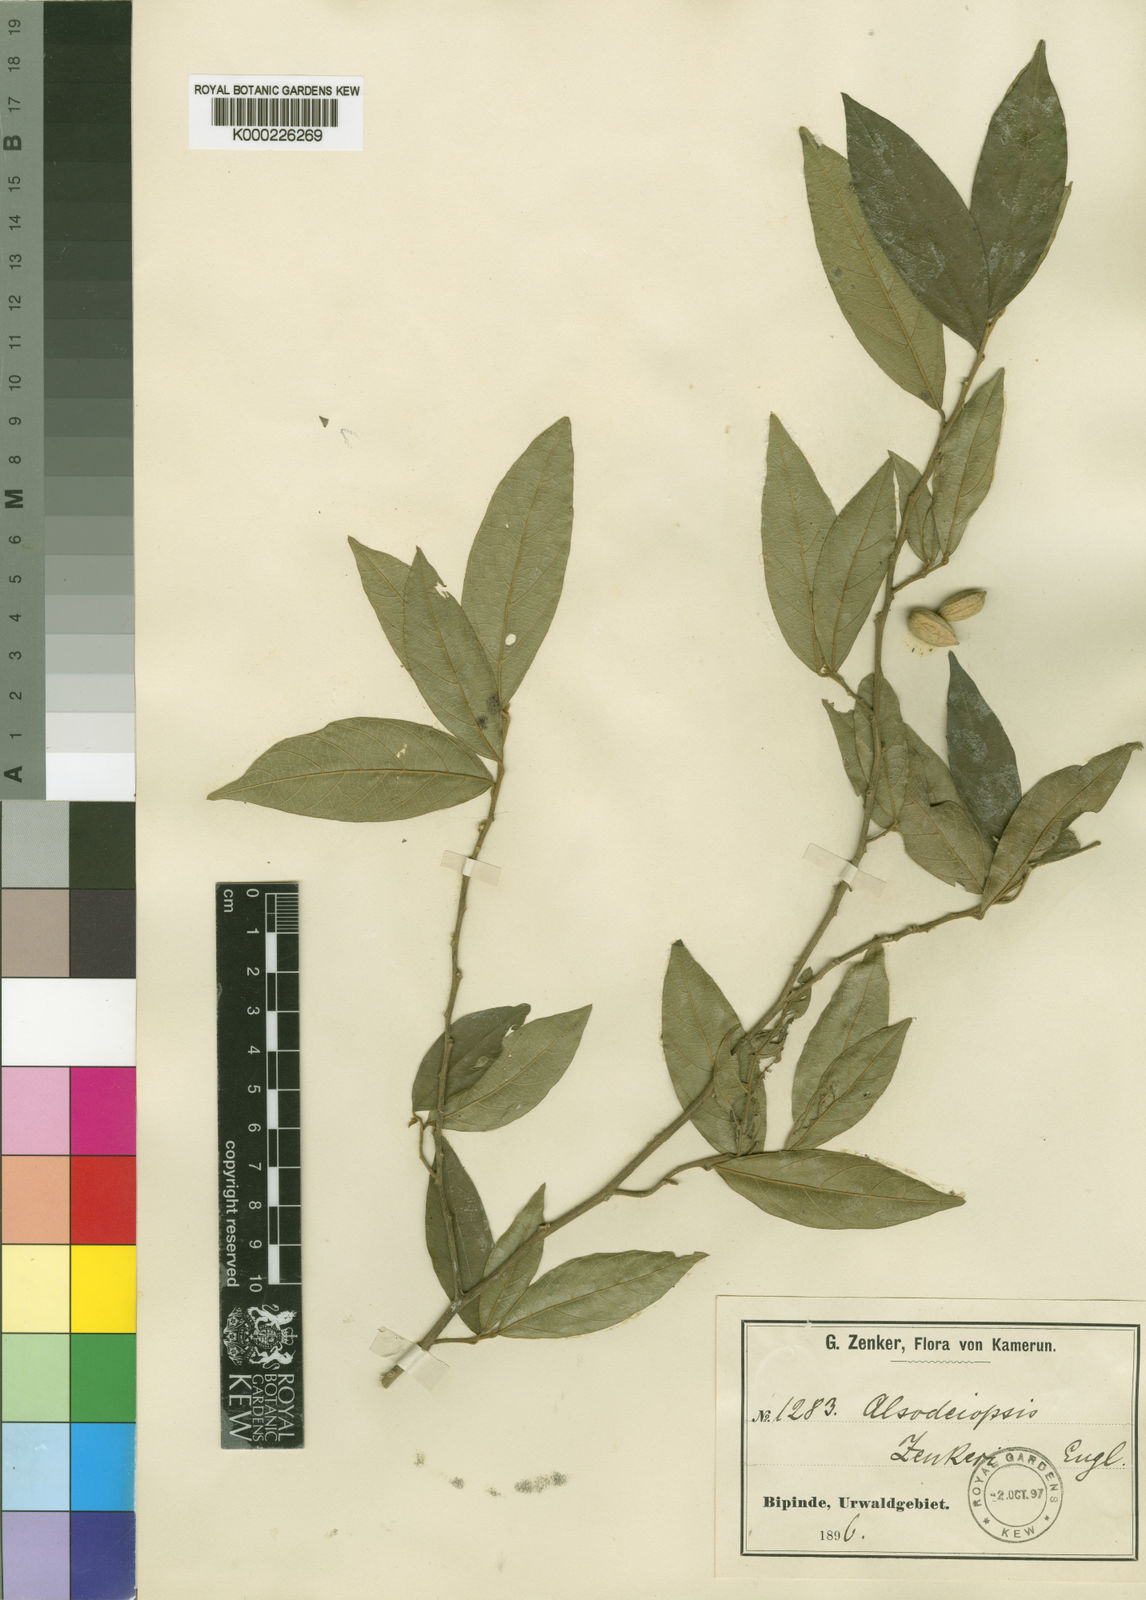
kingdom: Plantae
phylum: Tracheophyta
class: Magnoliopsida
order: Icacinales
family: Icacinaceae
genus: Alsodeiopsis
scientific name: Alsodeiopsis zenkeri
